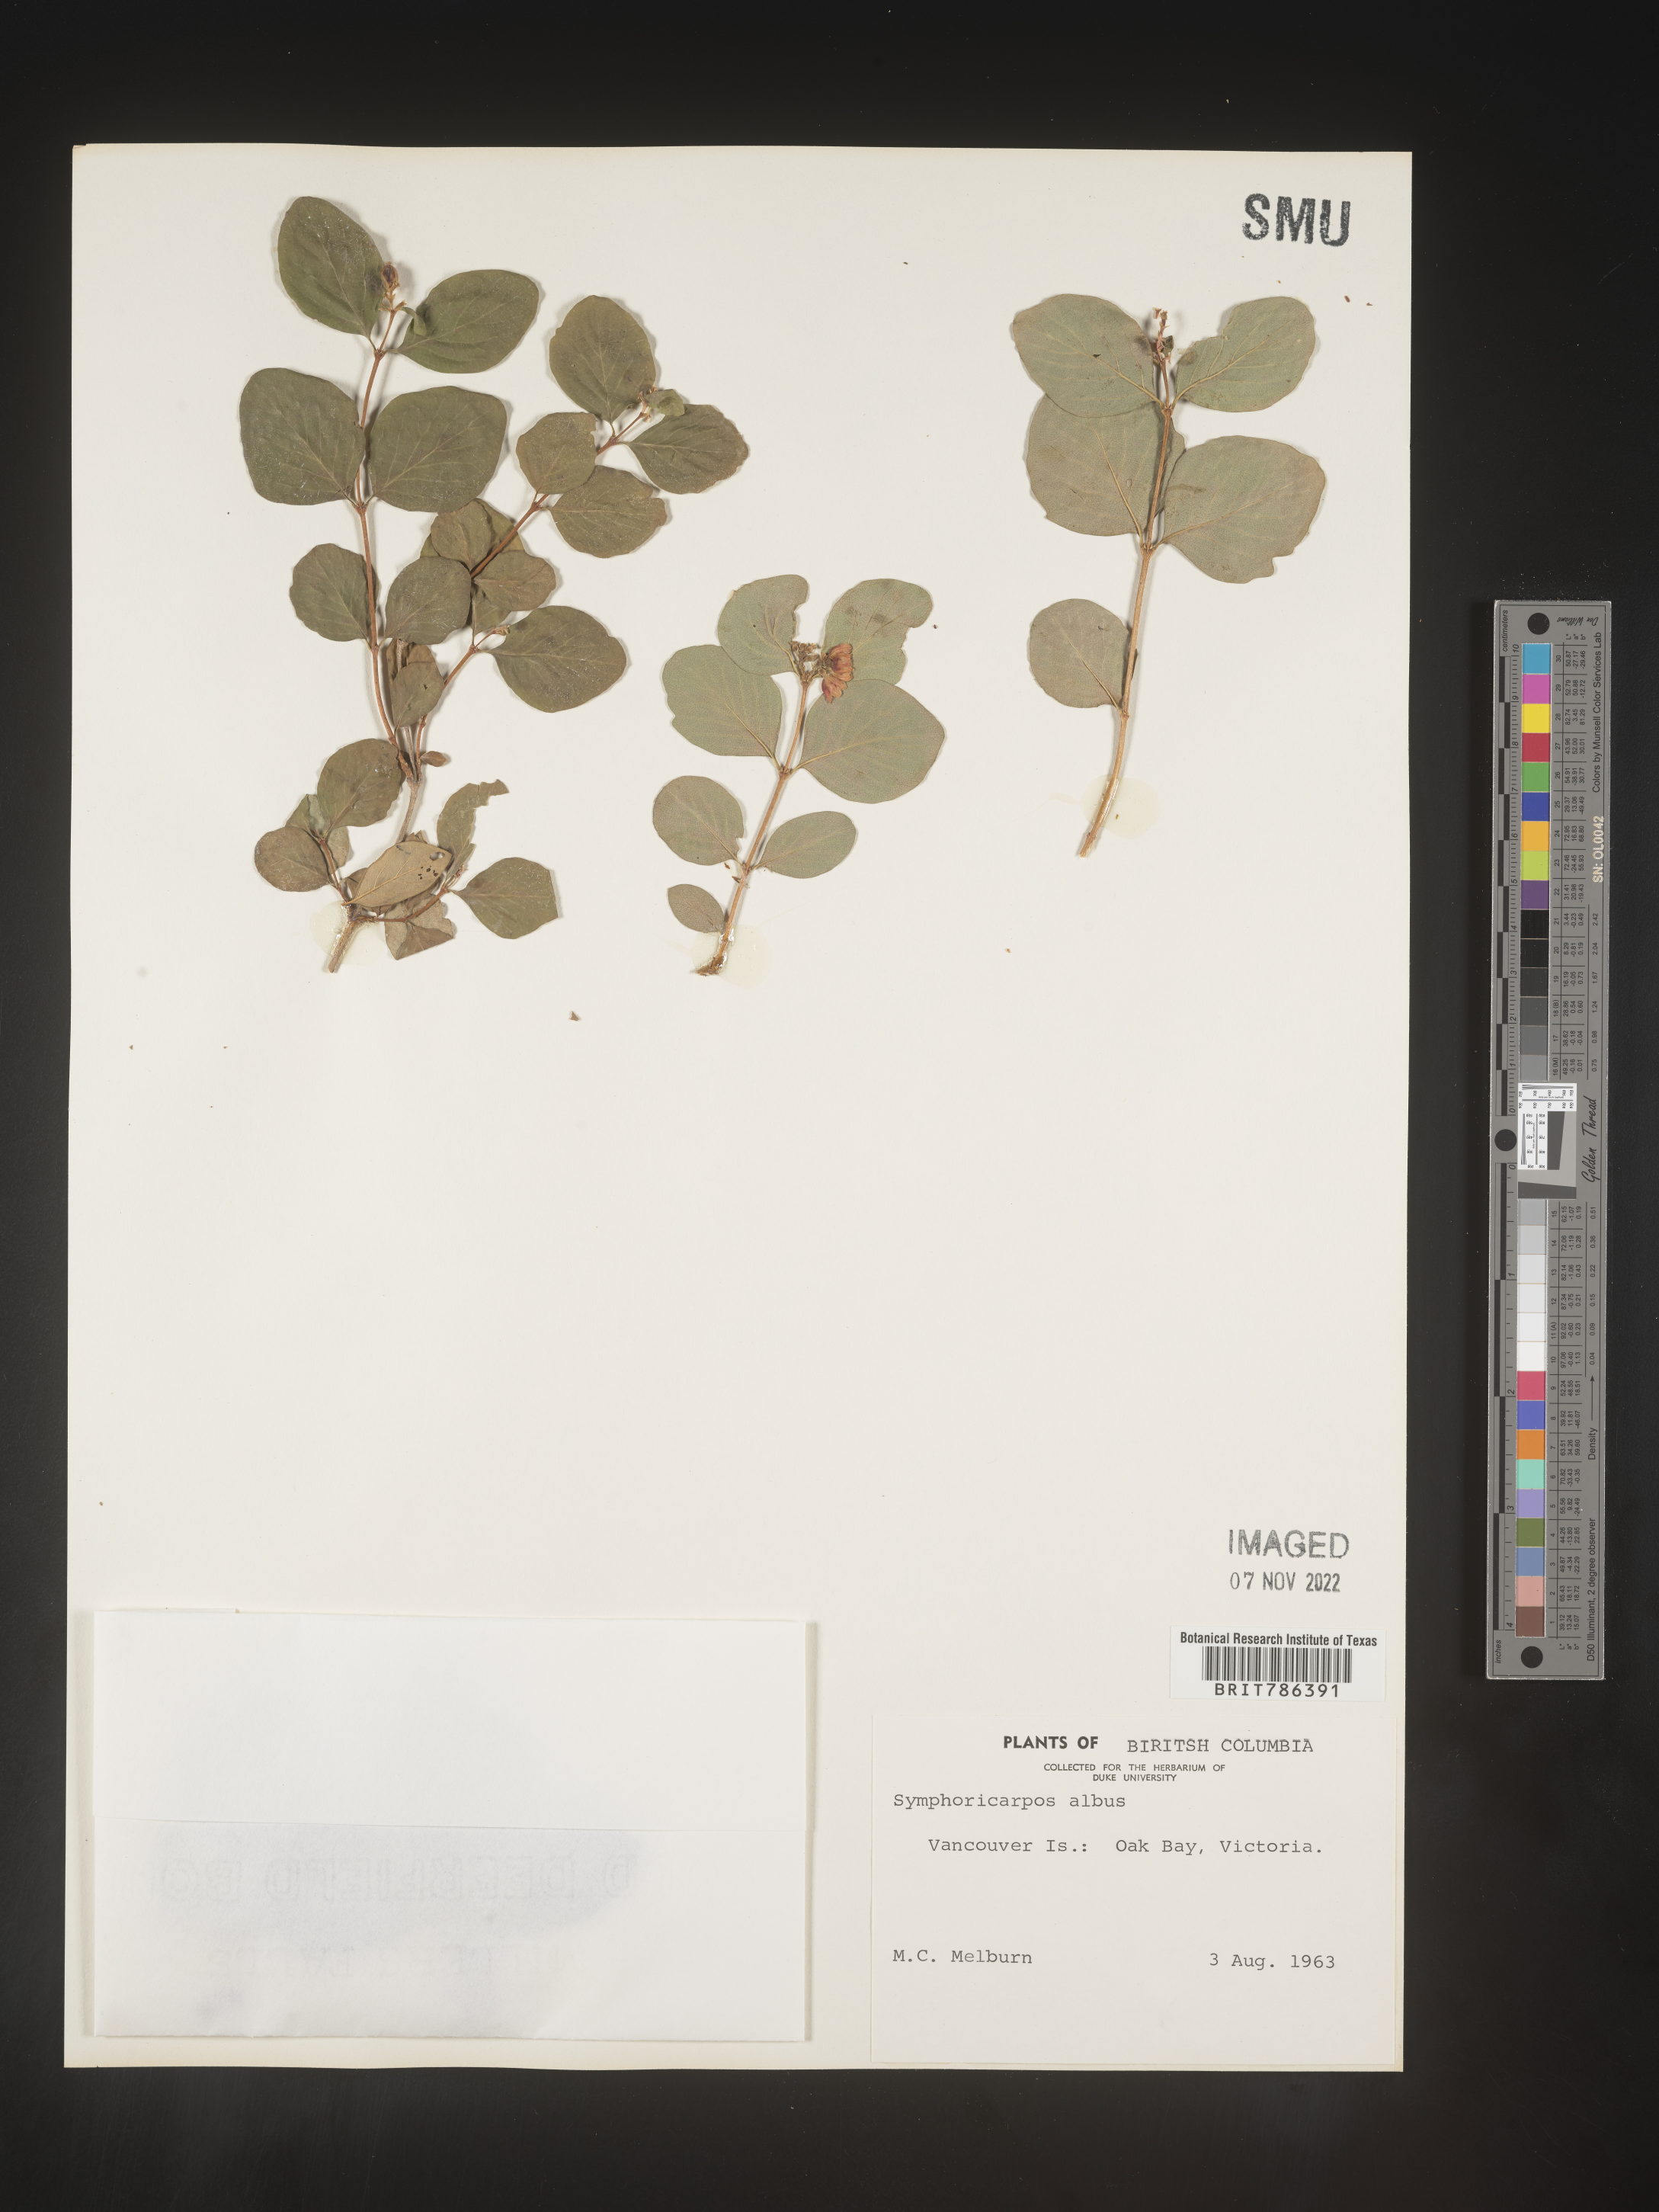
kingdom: Plantae
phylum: Tracheophyta
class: Magnoliopsida
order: Dipsacales
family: Caprifoliaceae
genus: Symphoricarpos
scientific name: Symphoricarpos albus
